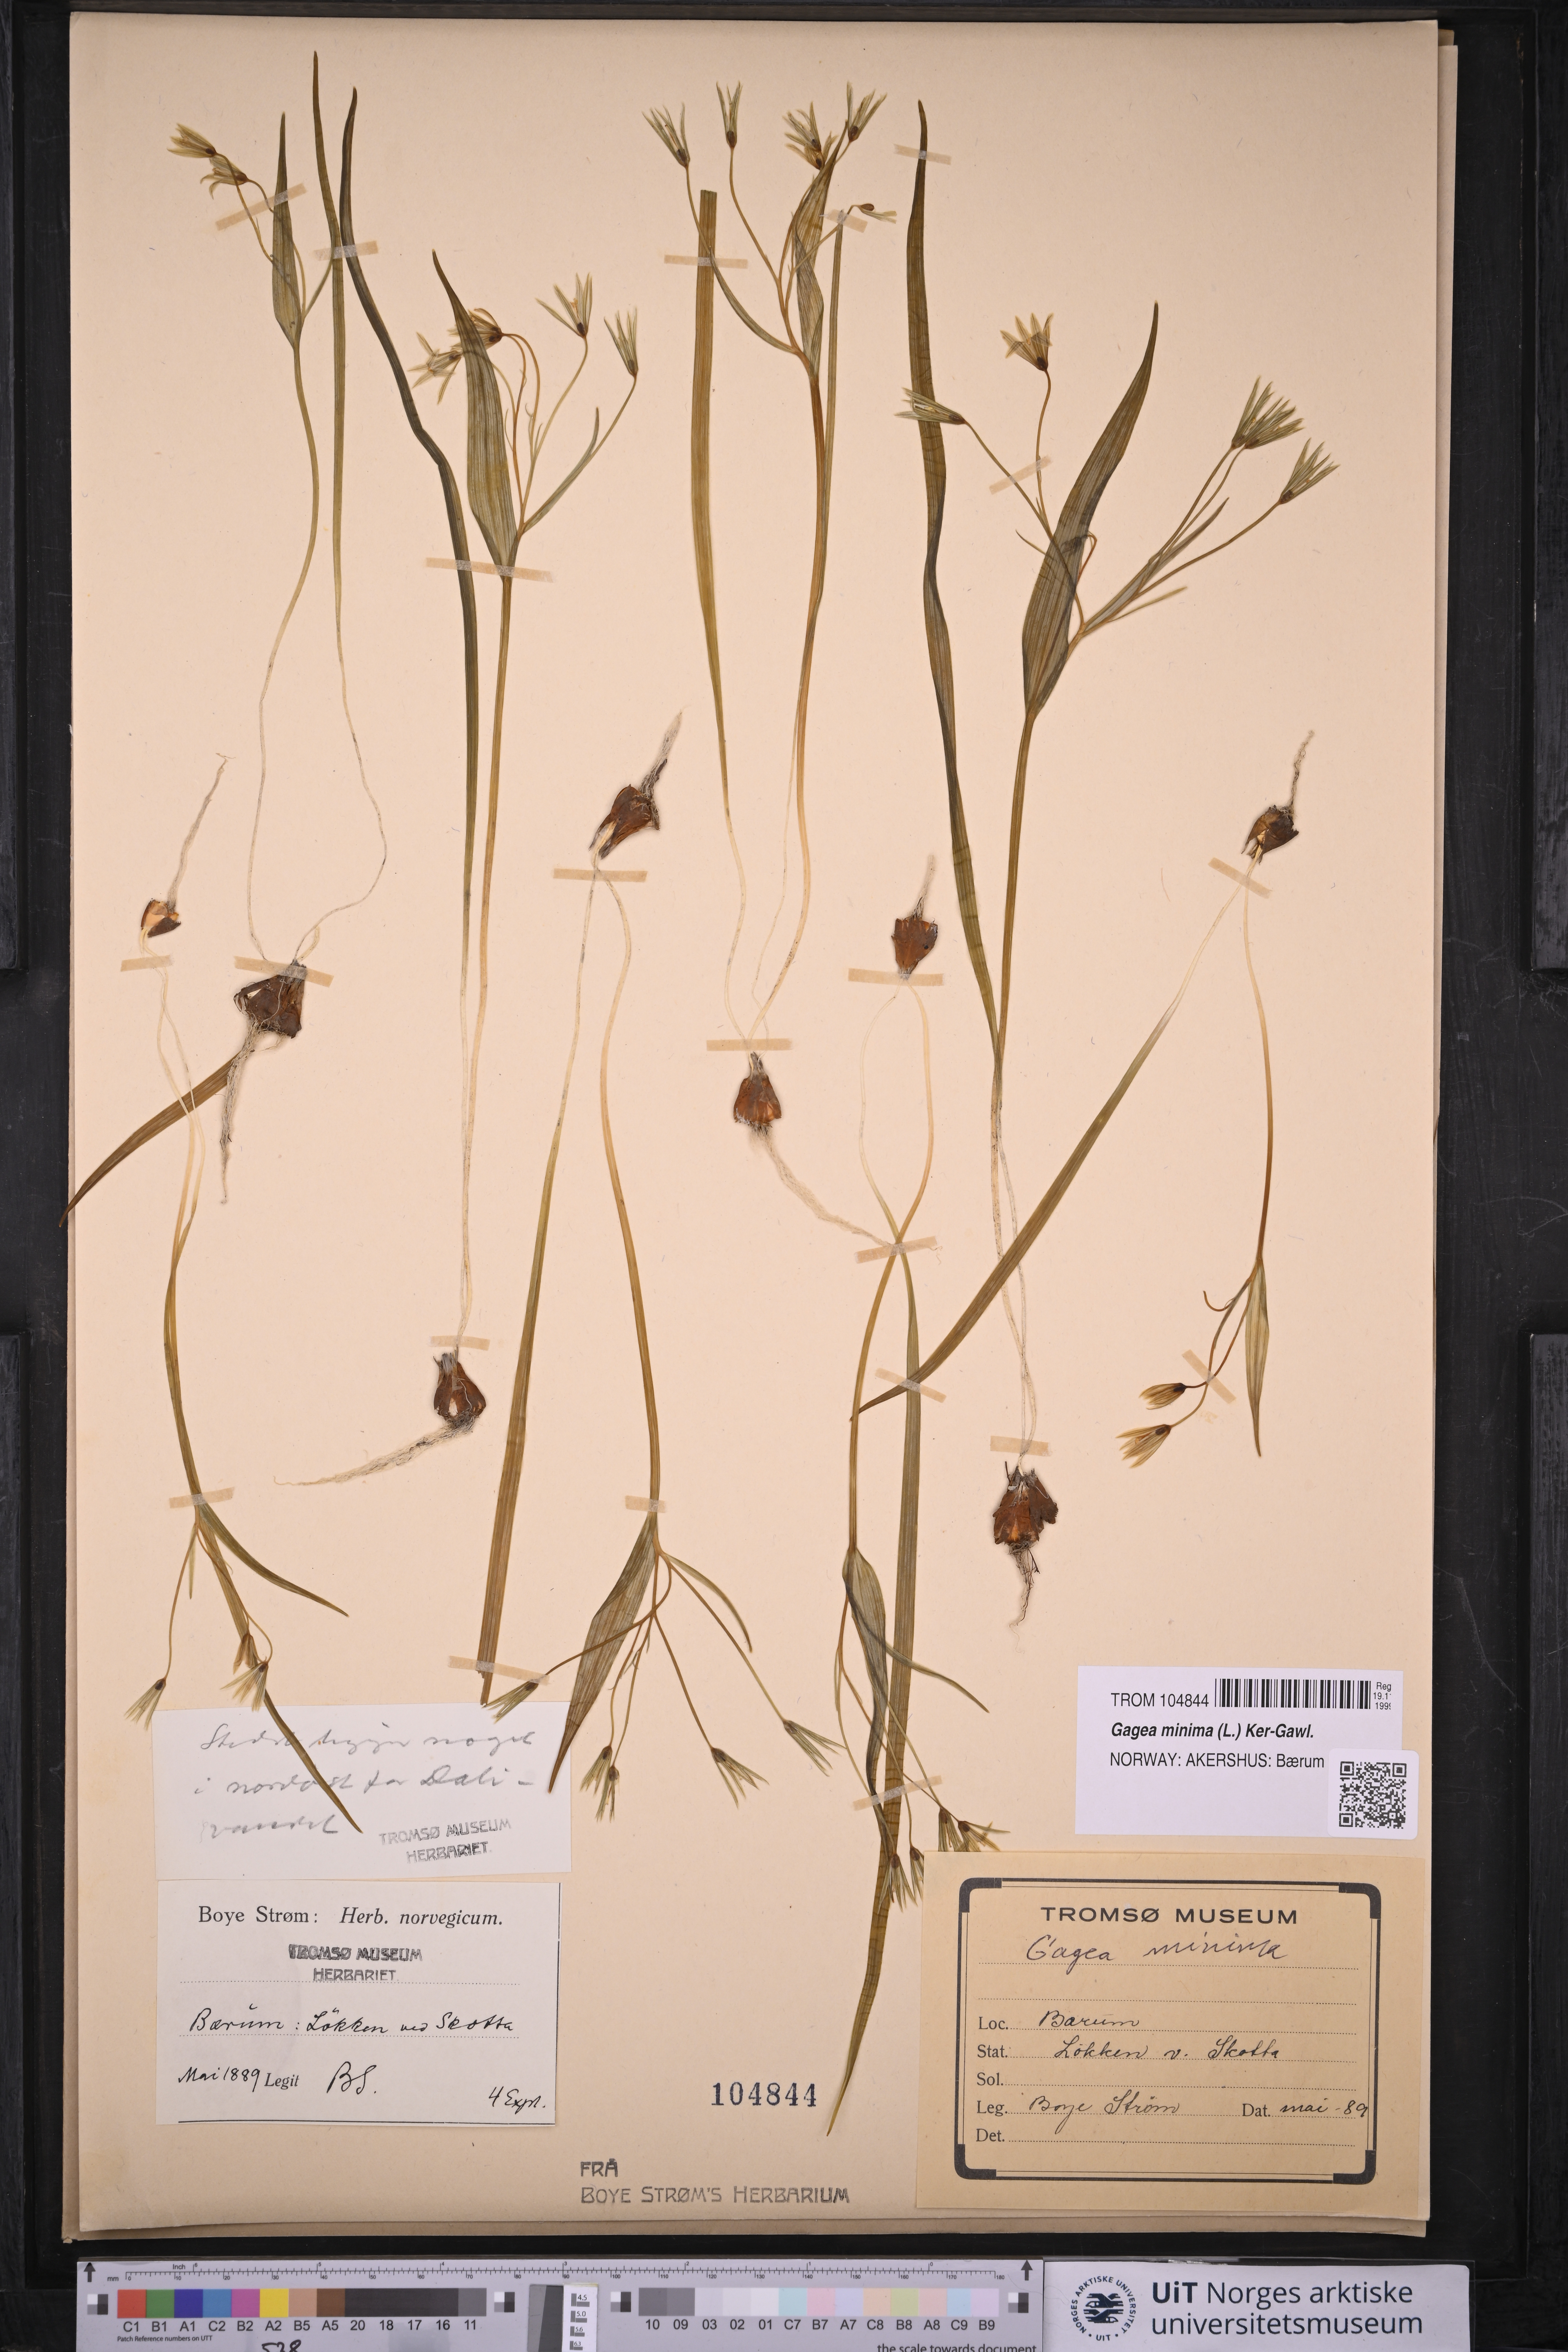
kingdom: Plantae
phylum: Tracheophyta
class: Liliopsida
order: Liliales
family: Liliaceae
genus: Gagea
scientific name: Gagea minima
